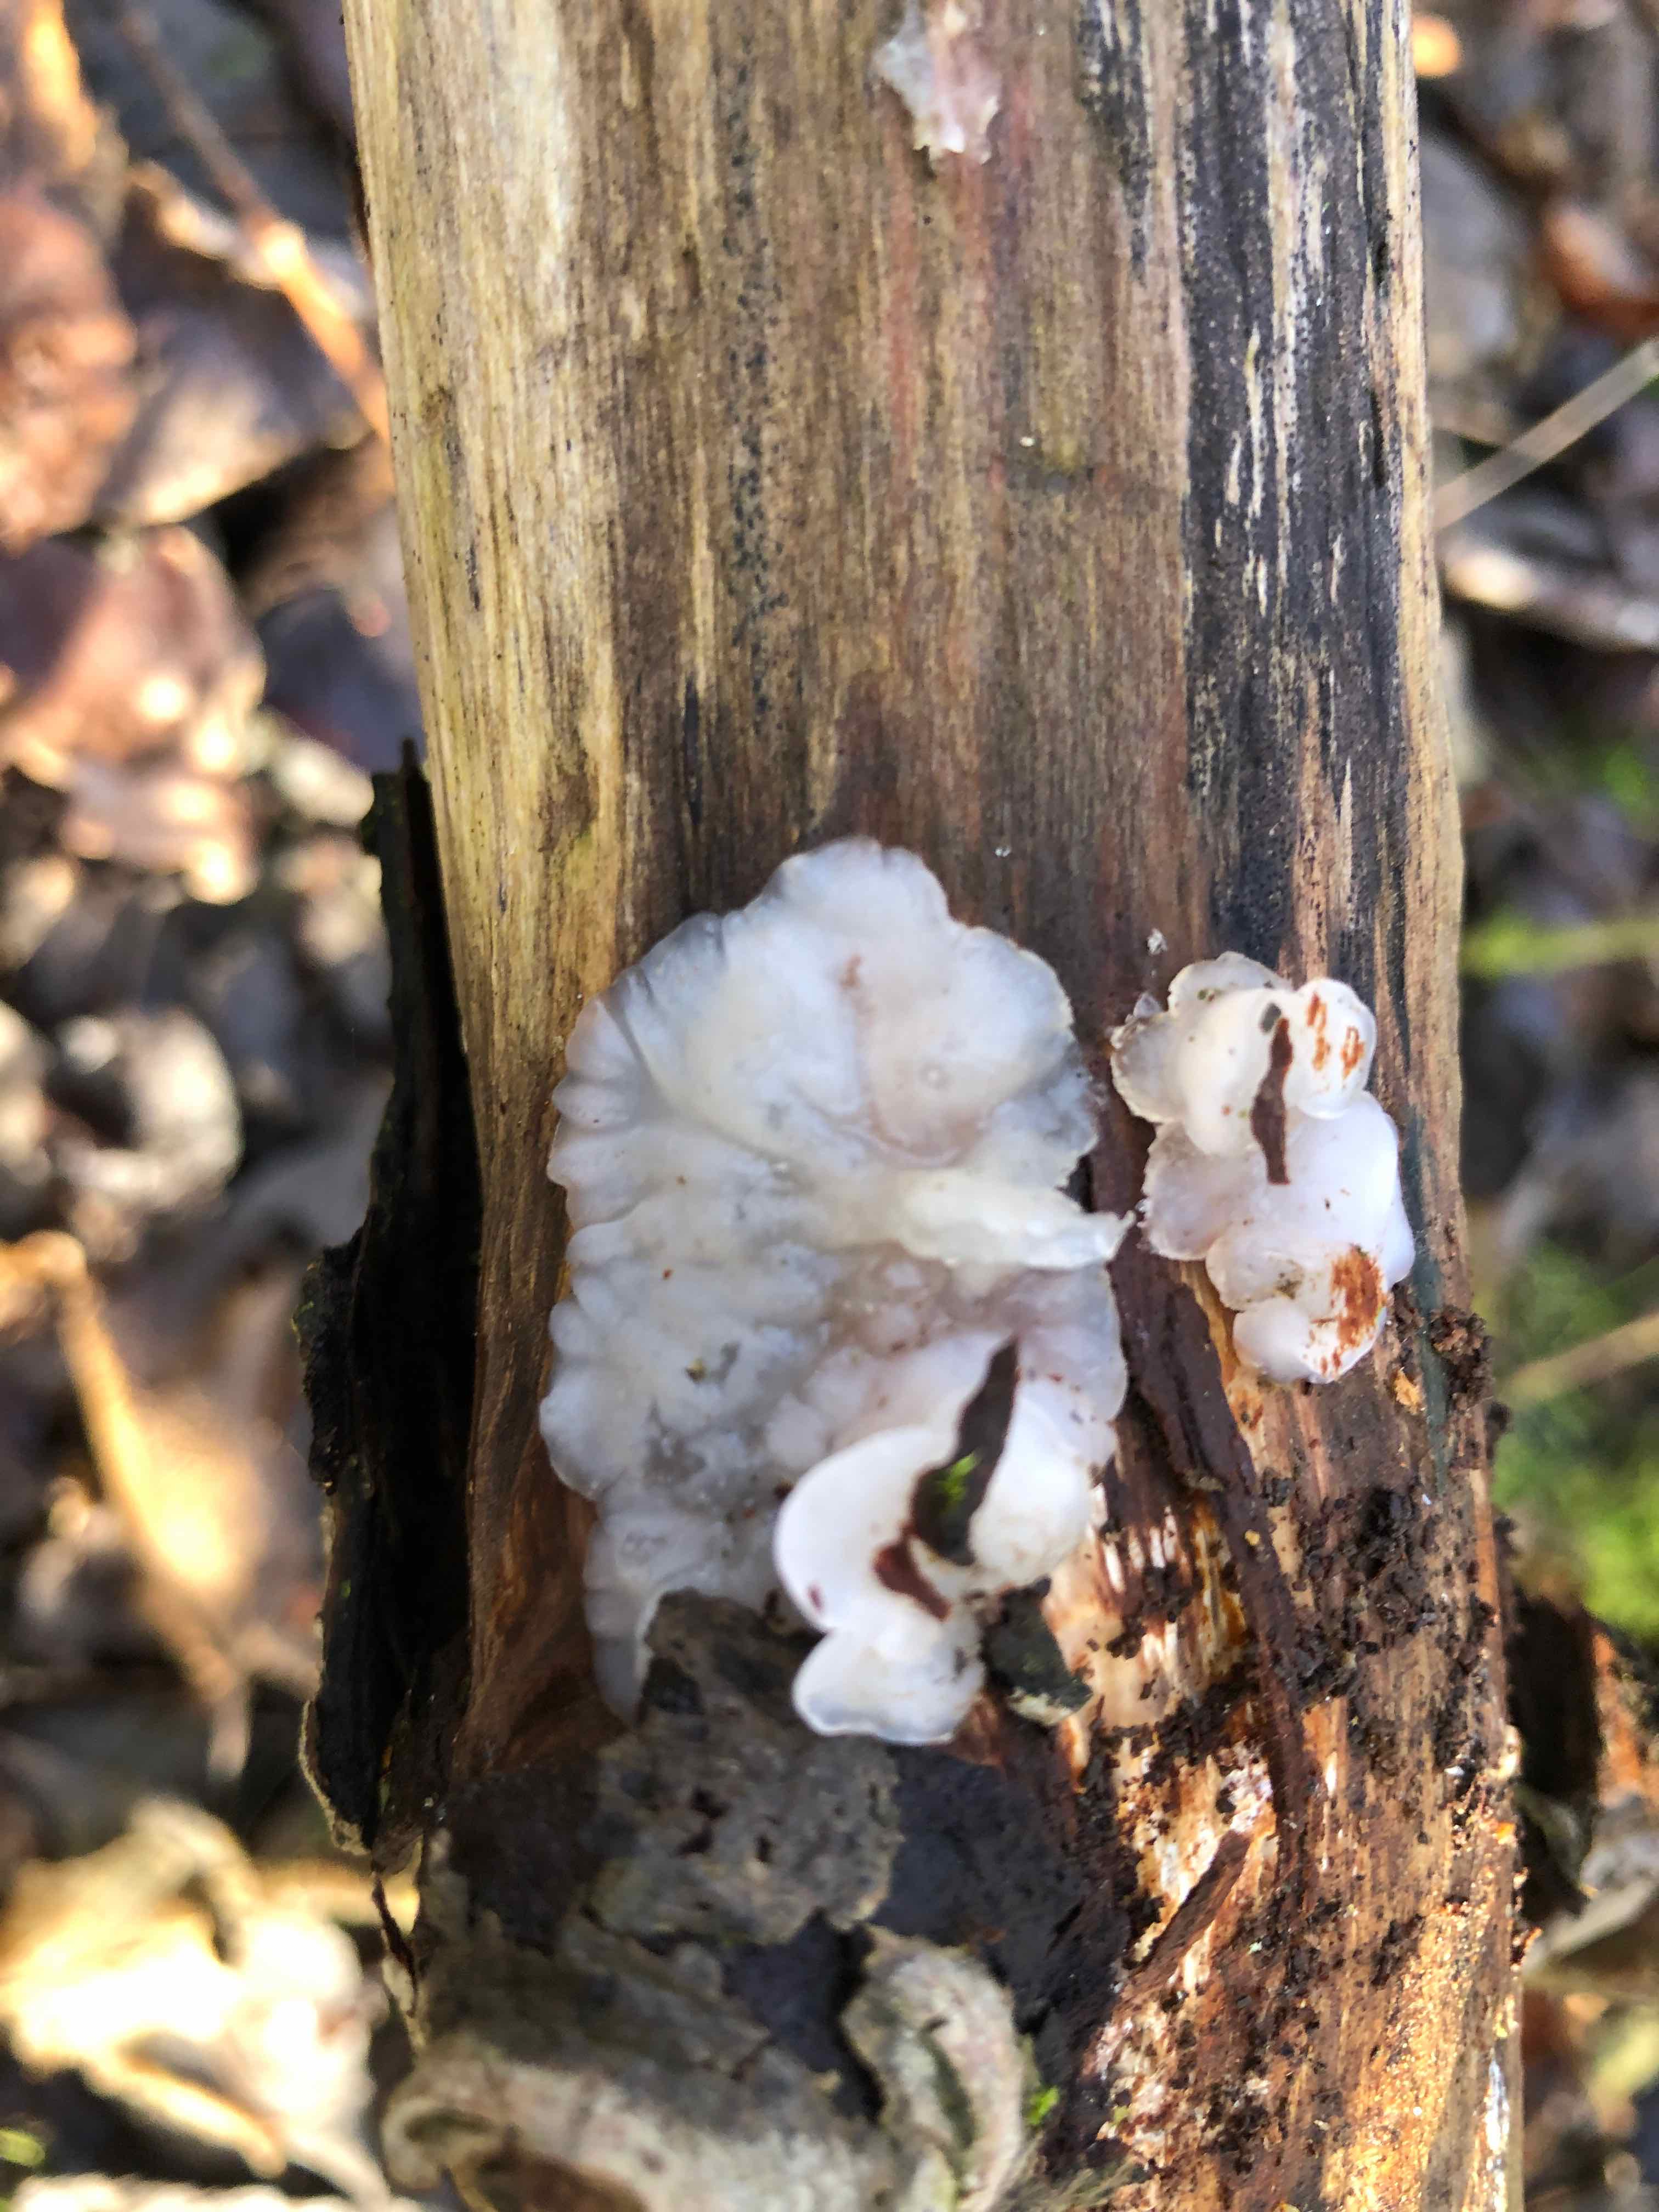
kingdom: Fungi
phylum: Basidiomycota
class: Agaricomycetes
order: Auriculariales
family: Auriculariaceae
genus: Exidia
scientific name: Exidia thuretiana
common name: hvidlig bævretop
